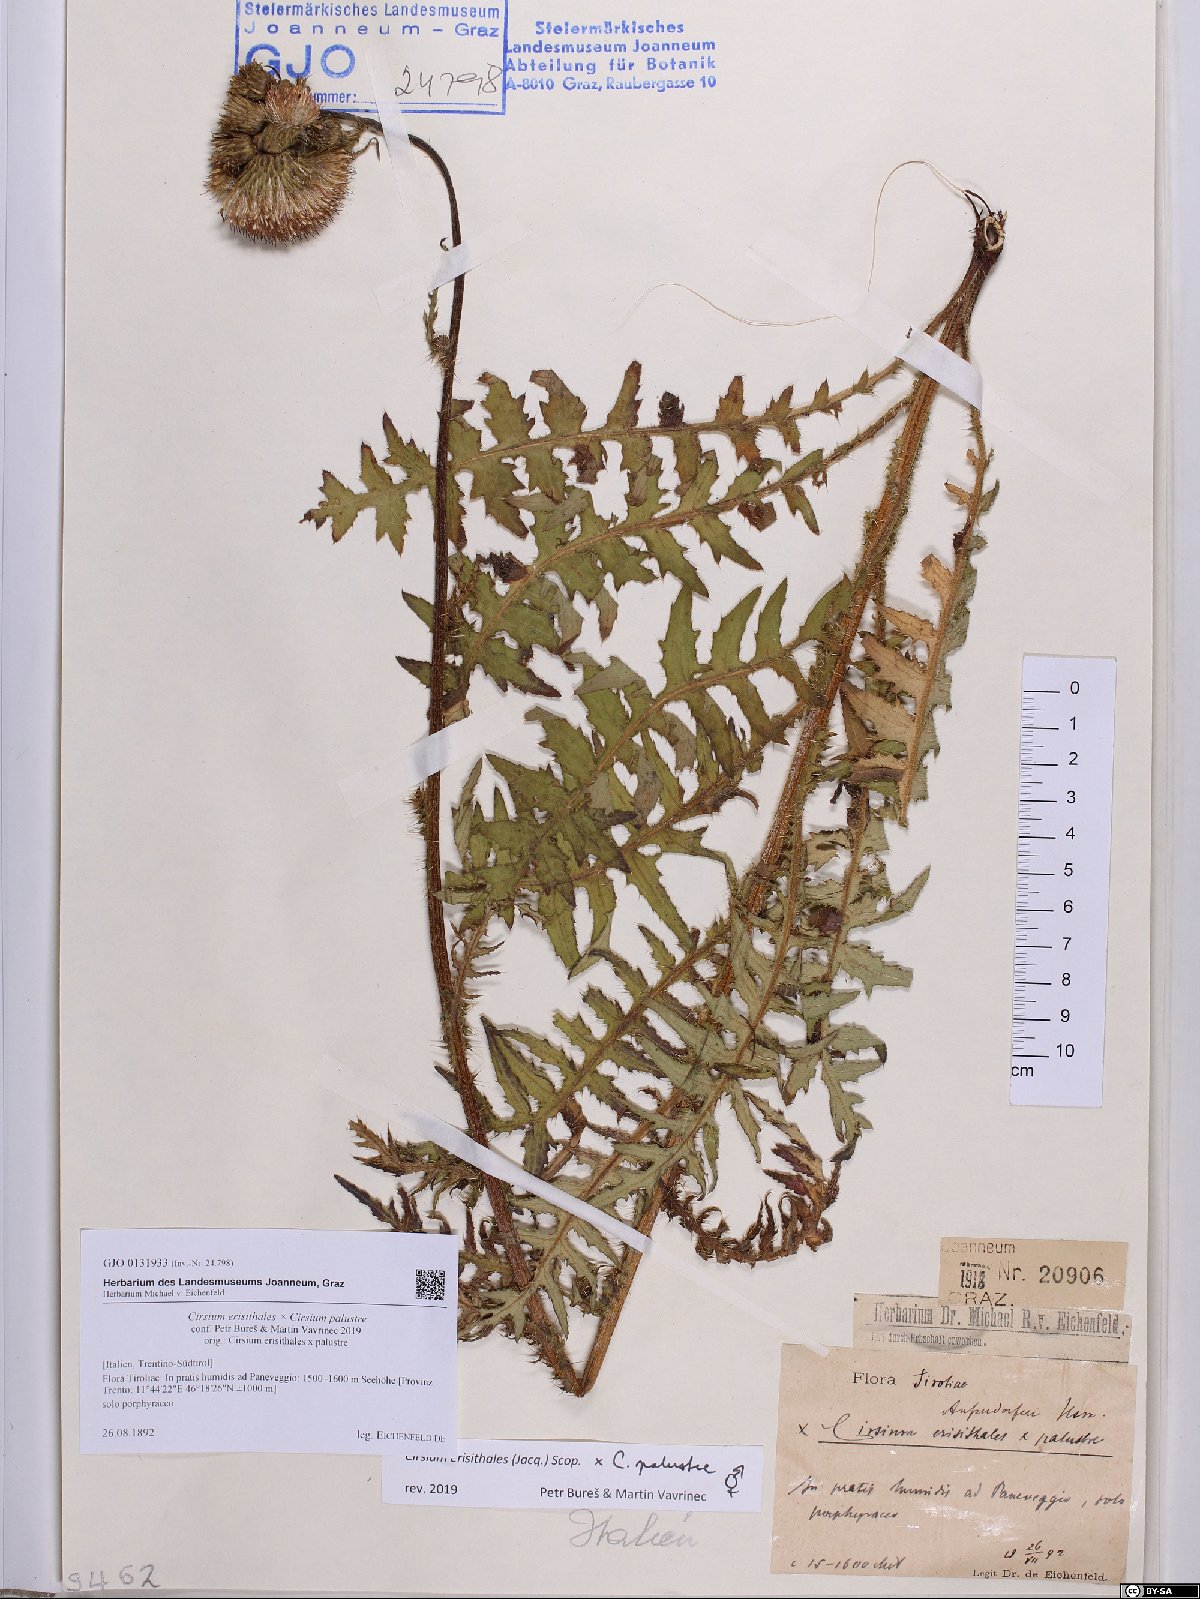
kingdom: Plantae
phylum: Tracheophyta
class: Magnoliopsida
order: Asterales
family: Asteraceae
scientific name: Asteraceae
